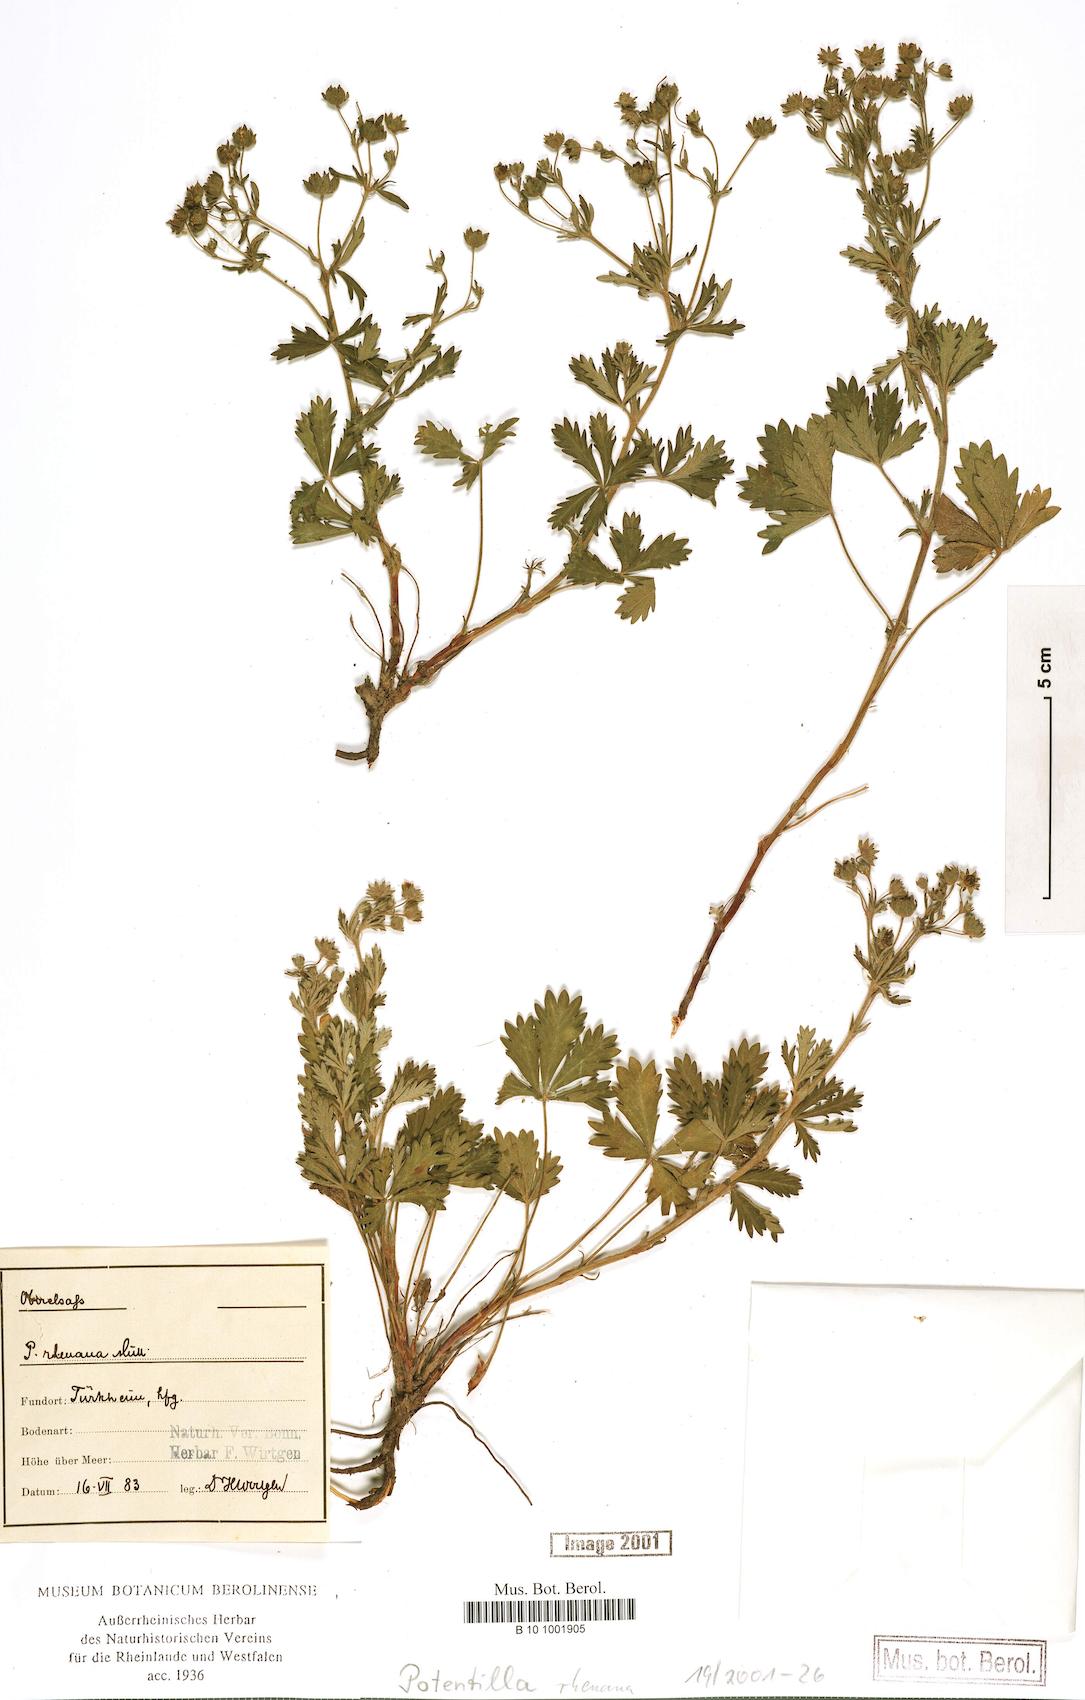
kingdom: Plantae
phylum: Tracheophyta
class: Magnoliopsida
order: Rosales
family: Rosaceae
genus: Potentilla
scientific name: Potentilla rhenana
